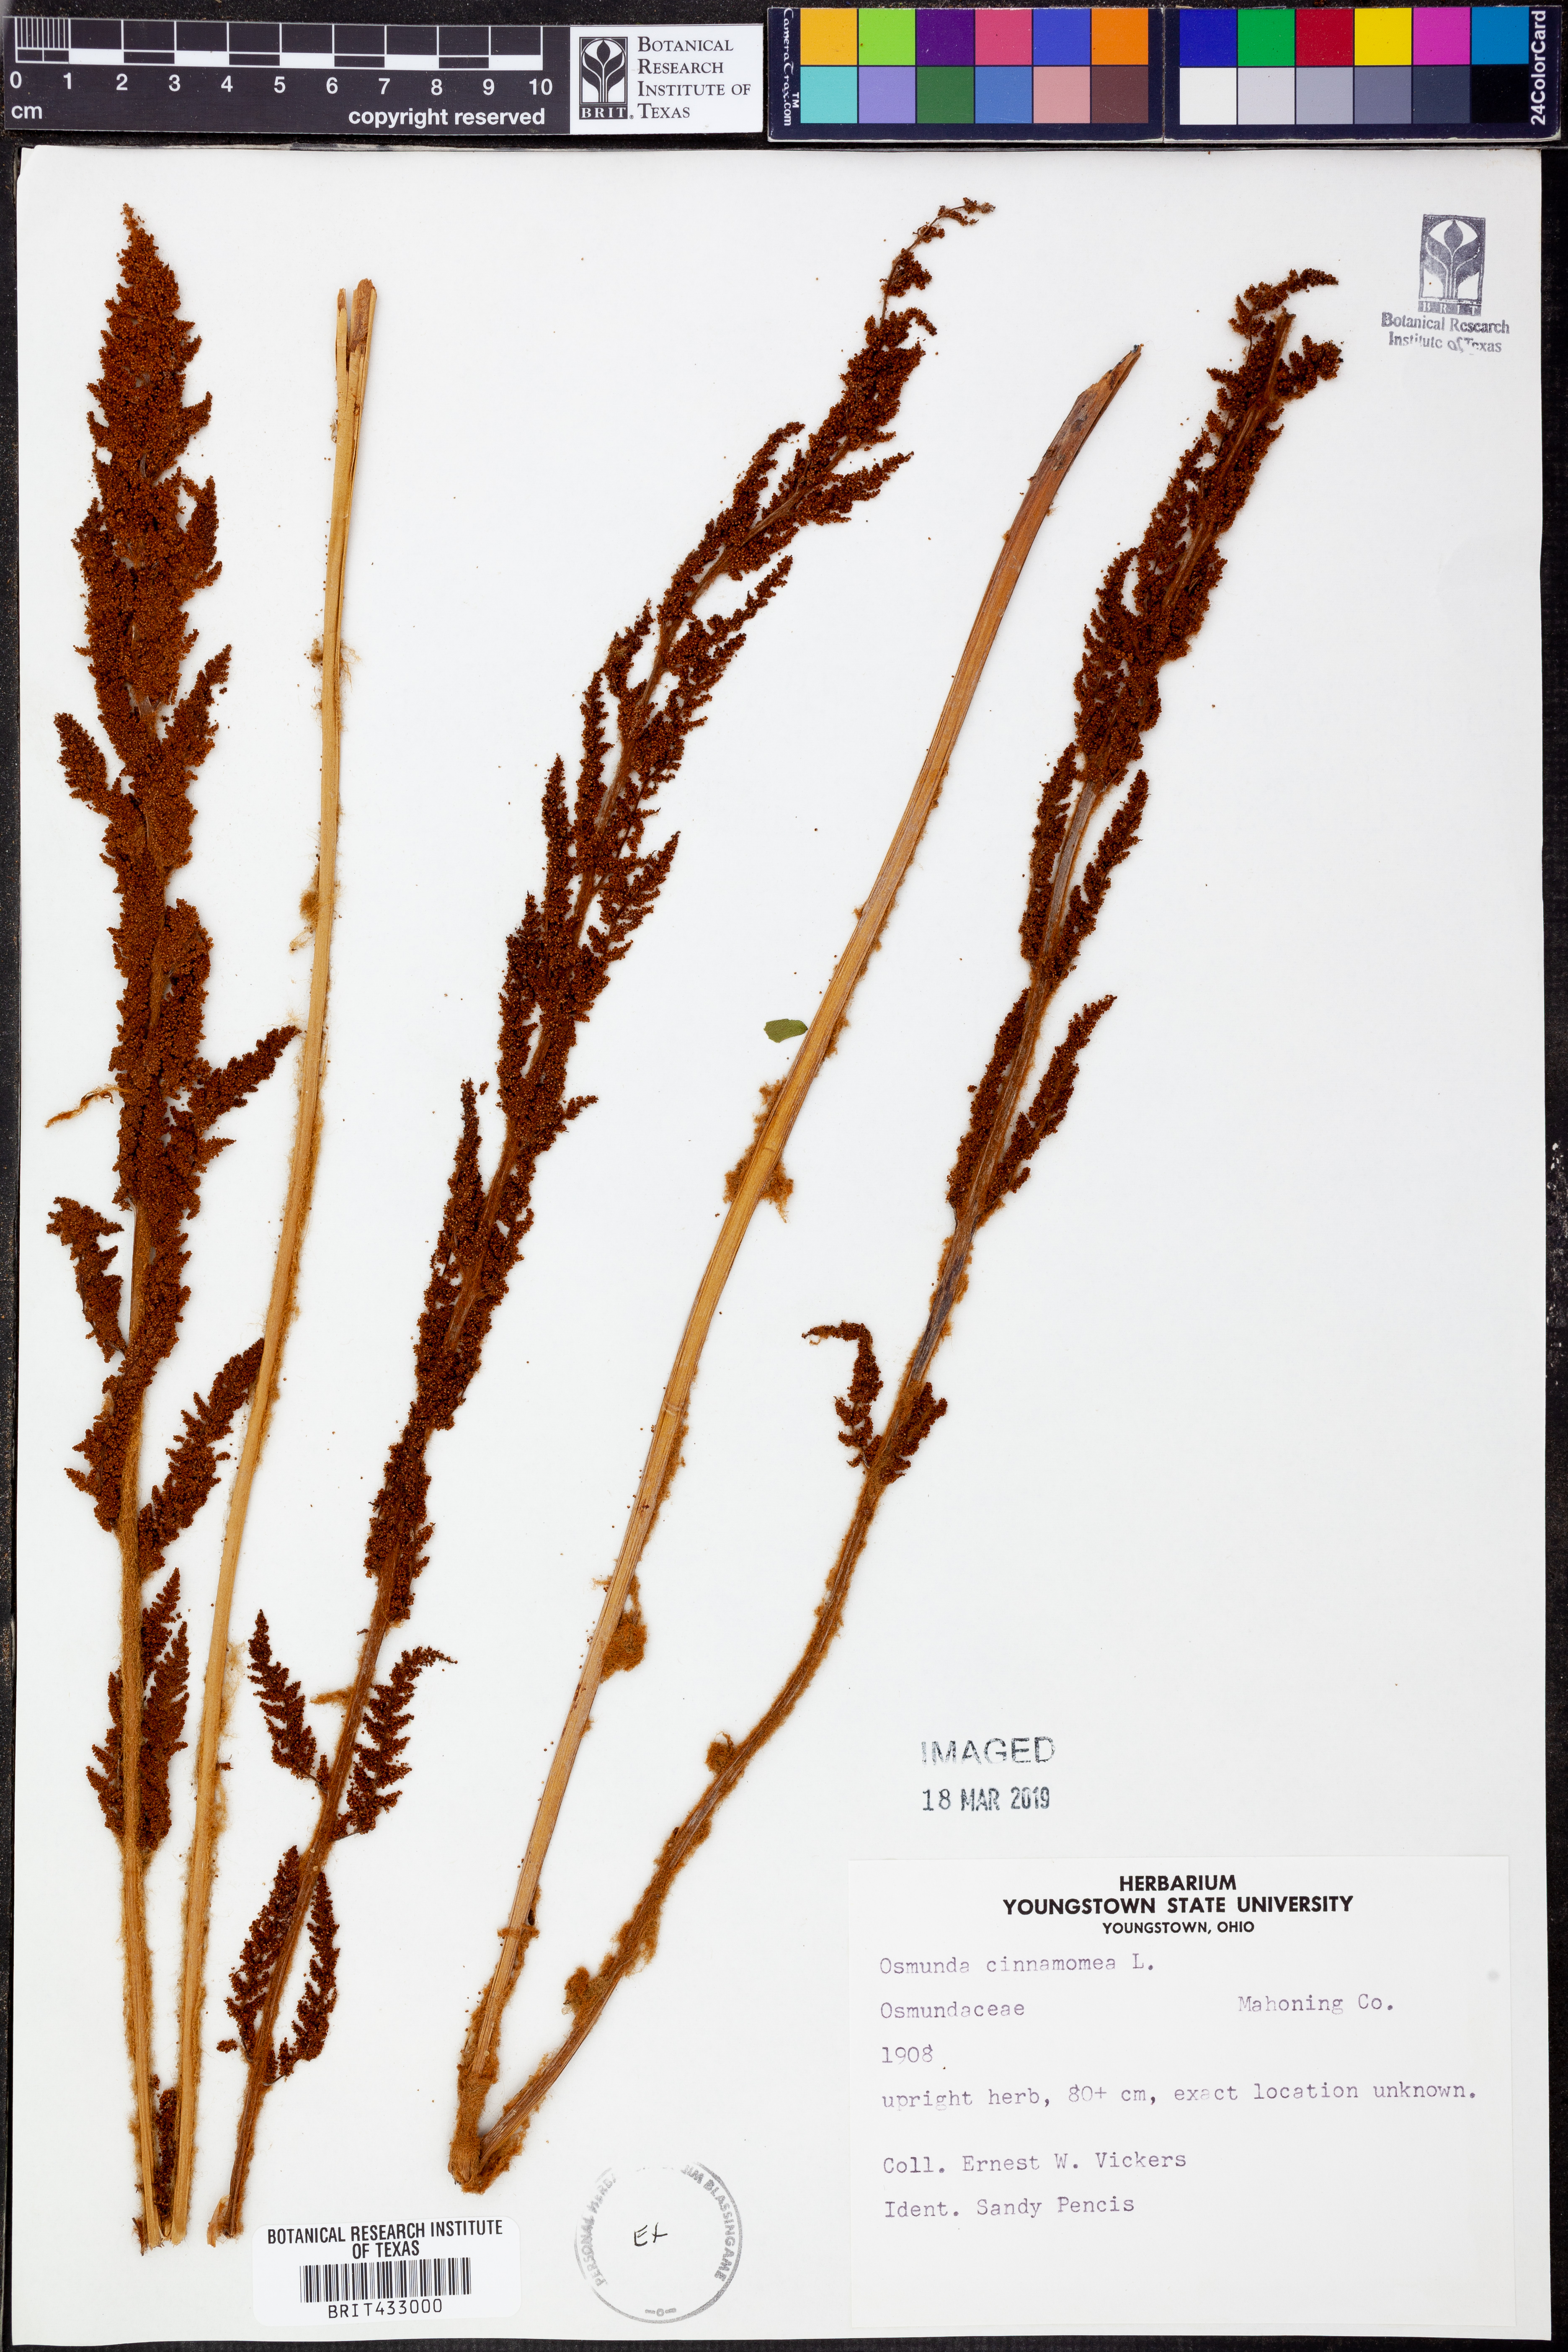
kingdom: Plantae
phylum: Tracheophyta
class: Polypodiopsida
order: Osmundales
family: Osmundaceae
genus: Osmundastrum
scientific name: Osmundastrum cinnamomeum
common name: Cinnamon fern
